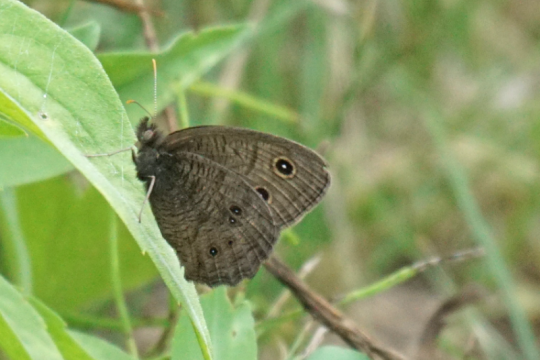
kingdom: Animalia
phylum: Arthropoda
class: Insecta
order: Lepidoptera
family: Nymphalidae
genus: Cercyonis
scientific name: Cercyonis pegala
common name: Common Wood-Nymph
